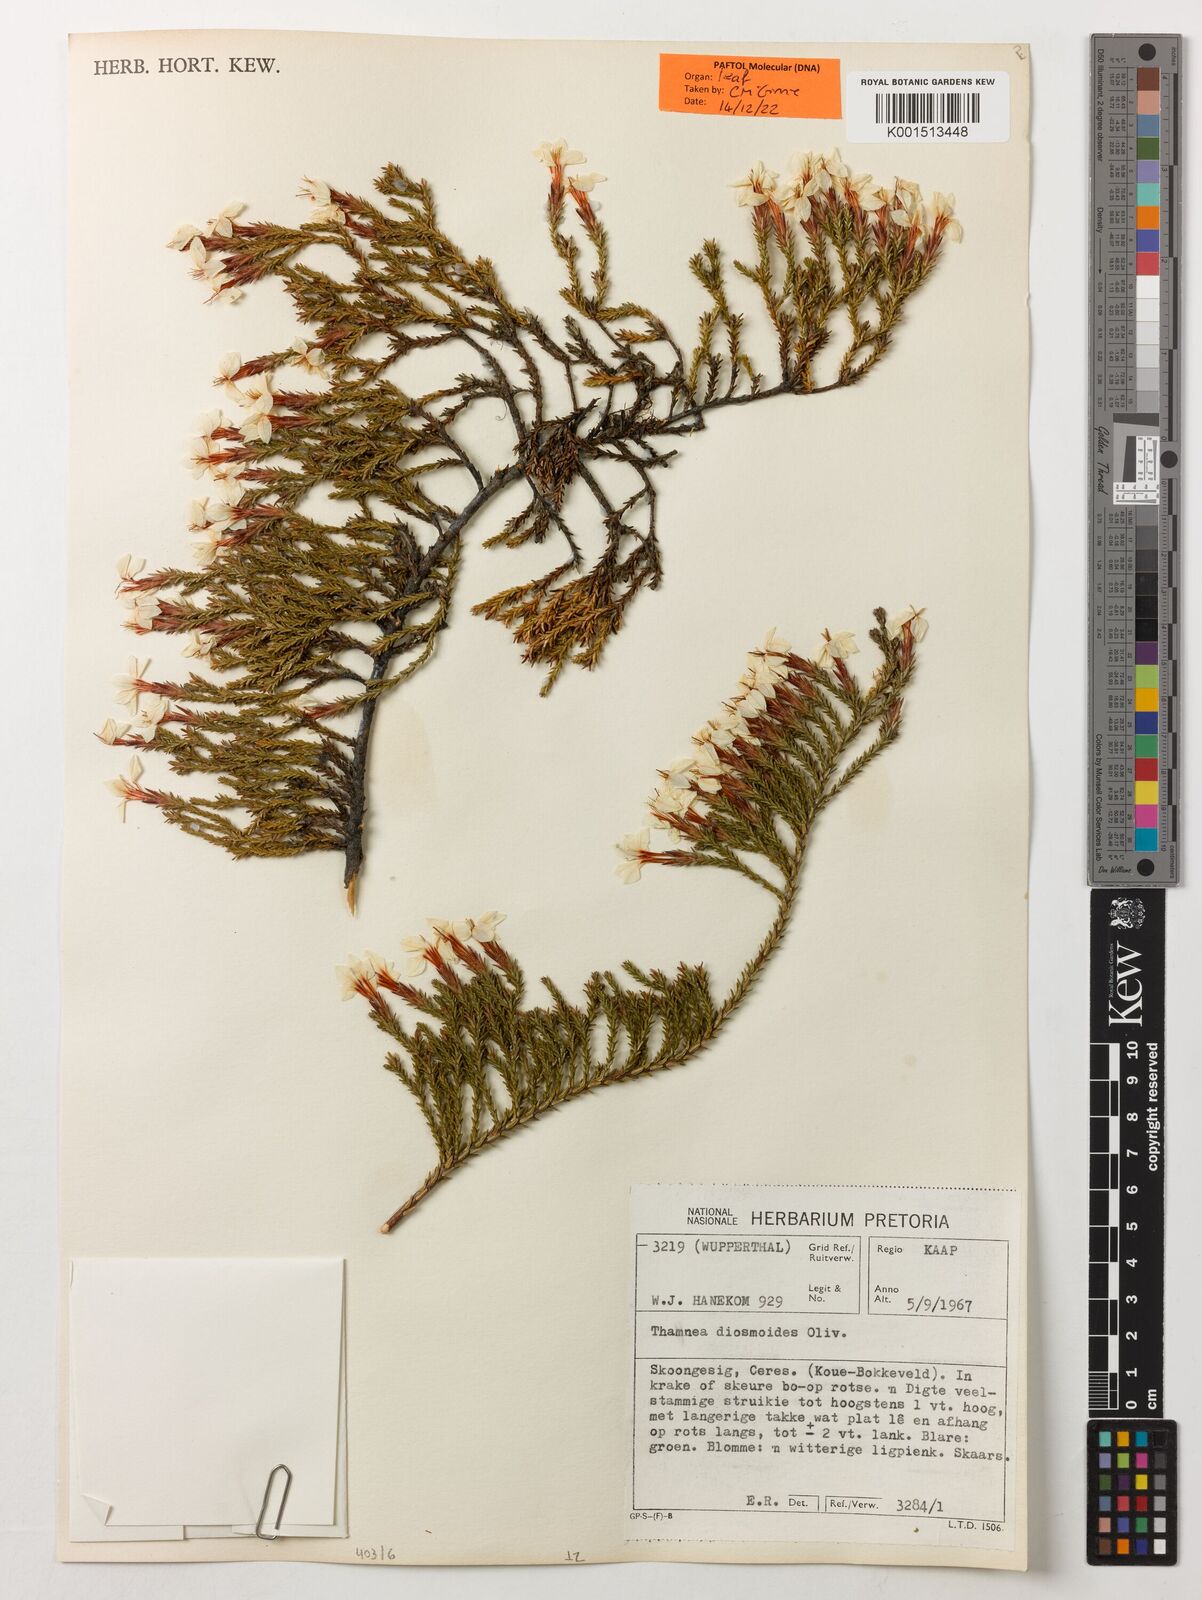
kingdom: Plantae
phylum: Tracheophyta
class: Magnoliopsida
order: Bruniales
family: Bruniaceae
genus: Thamnea
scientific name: Thamnea ustulata
